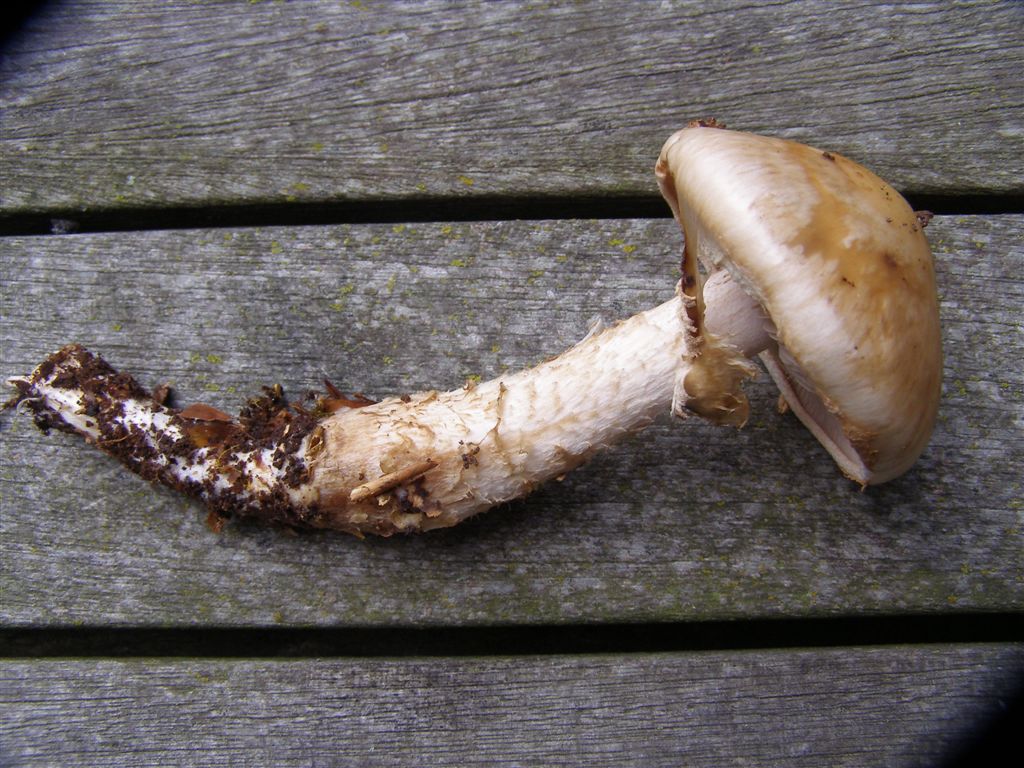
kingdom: Fungi
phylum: Basidiomycota
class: Agaricomycetes
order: Agaricales
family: Hymenogastraceae
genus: Hebeloma
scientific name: Hebeloma radicosum
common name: pælerods-tåreblad
